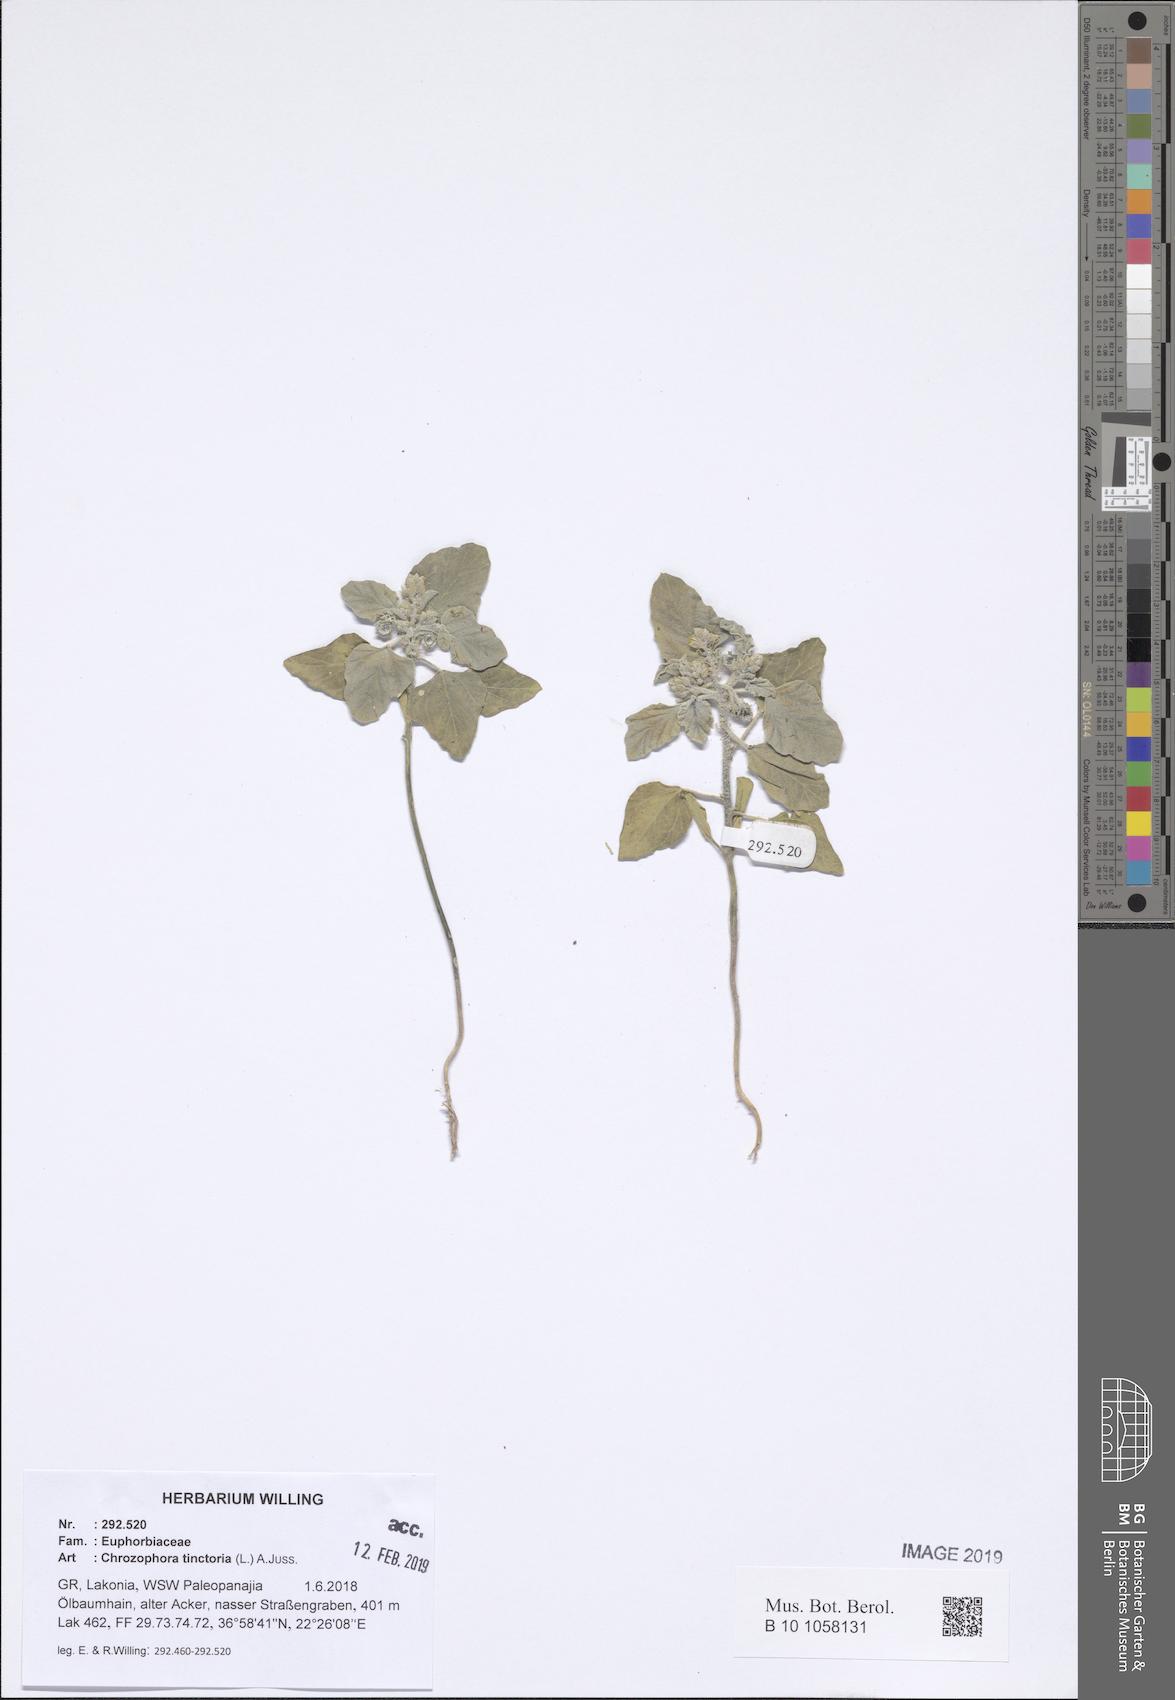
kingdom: Plantae
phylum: Tracheophyta
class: Magnoliopsida
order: Malpighiales
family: Euphorbiaceae
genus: Chrozophora
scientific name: Chrozophora tinctoria
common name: Dyer's litmus
